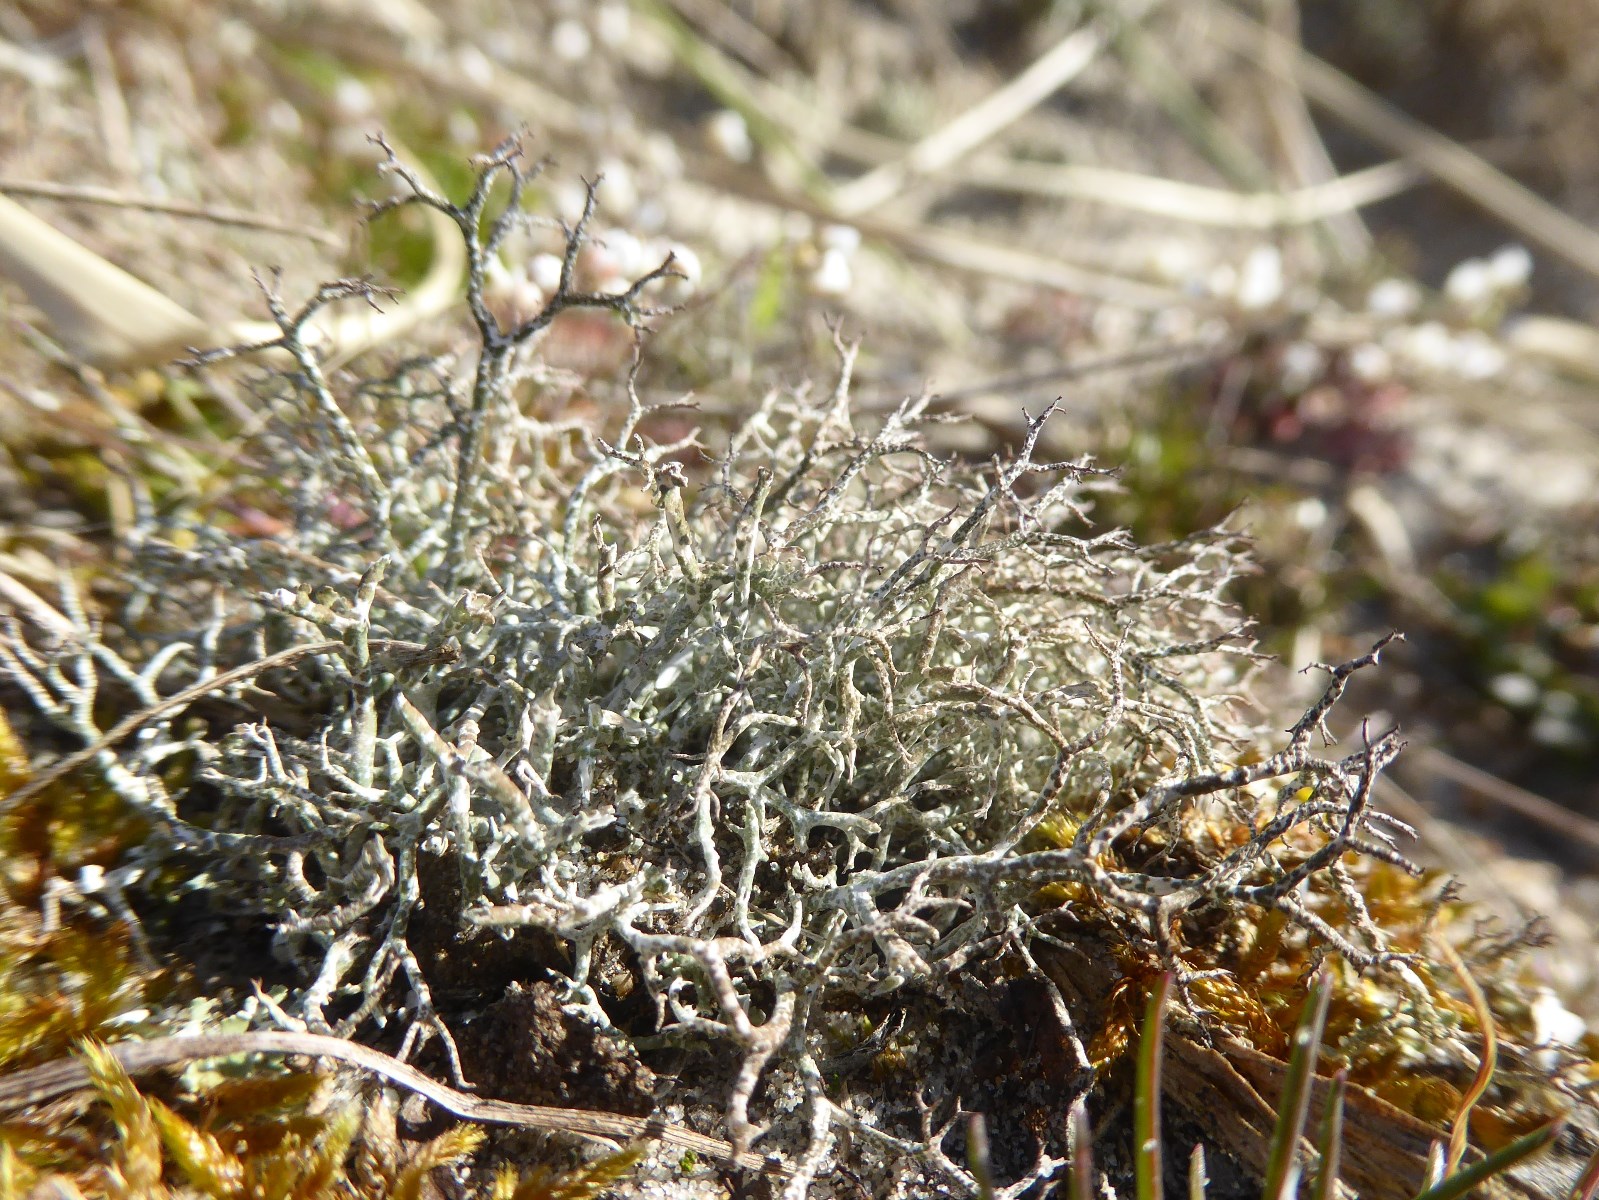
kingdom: Fungi
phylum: Ascomycota
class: Lecanoromycetes
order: Lecanorales
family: Cladoniaceae
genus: Cladonia
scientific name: Cladonia rangiformis
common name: spættet bægerlav
